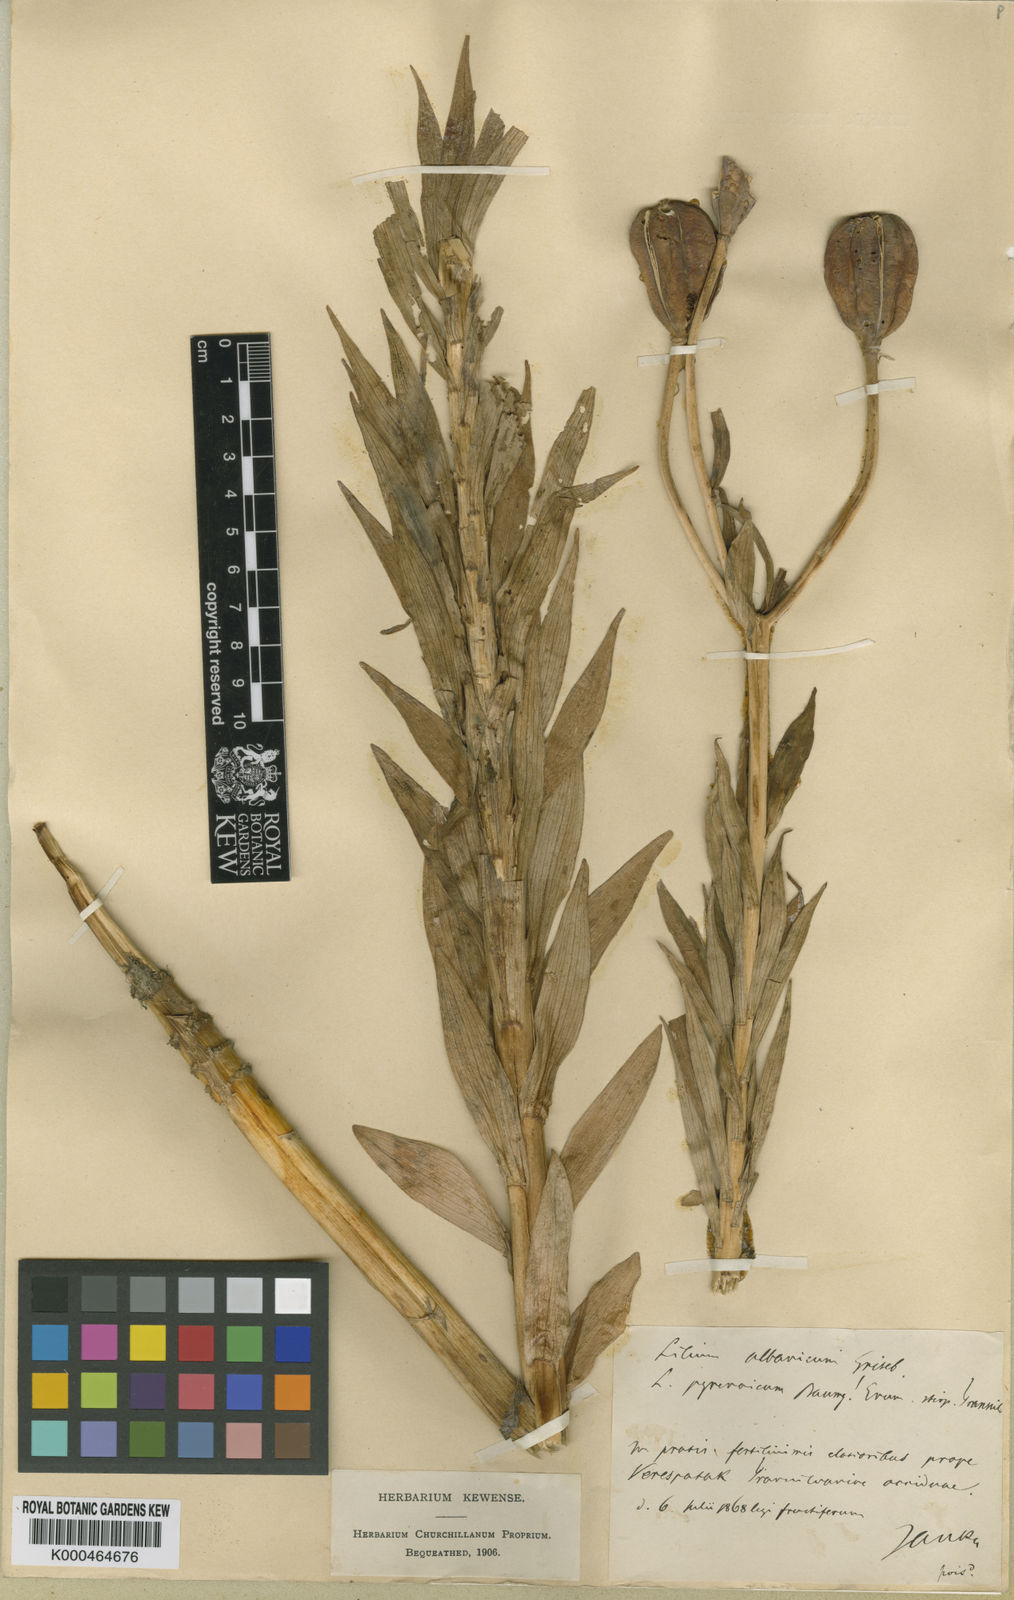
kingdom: Plantae
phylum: Tracheophyta
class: Liliopsida
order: Liliales
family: Liliaceae
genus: Lilium
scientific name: Lilium jankae
